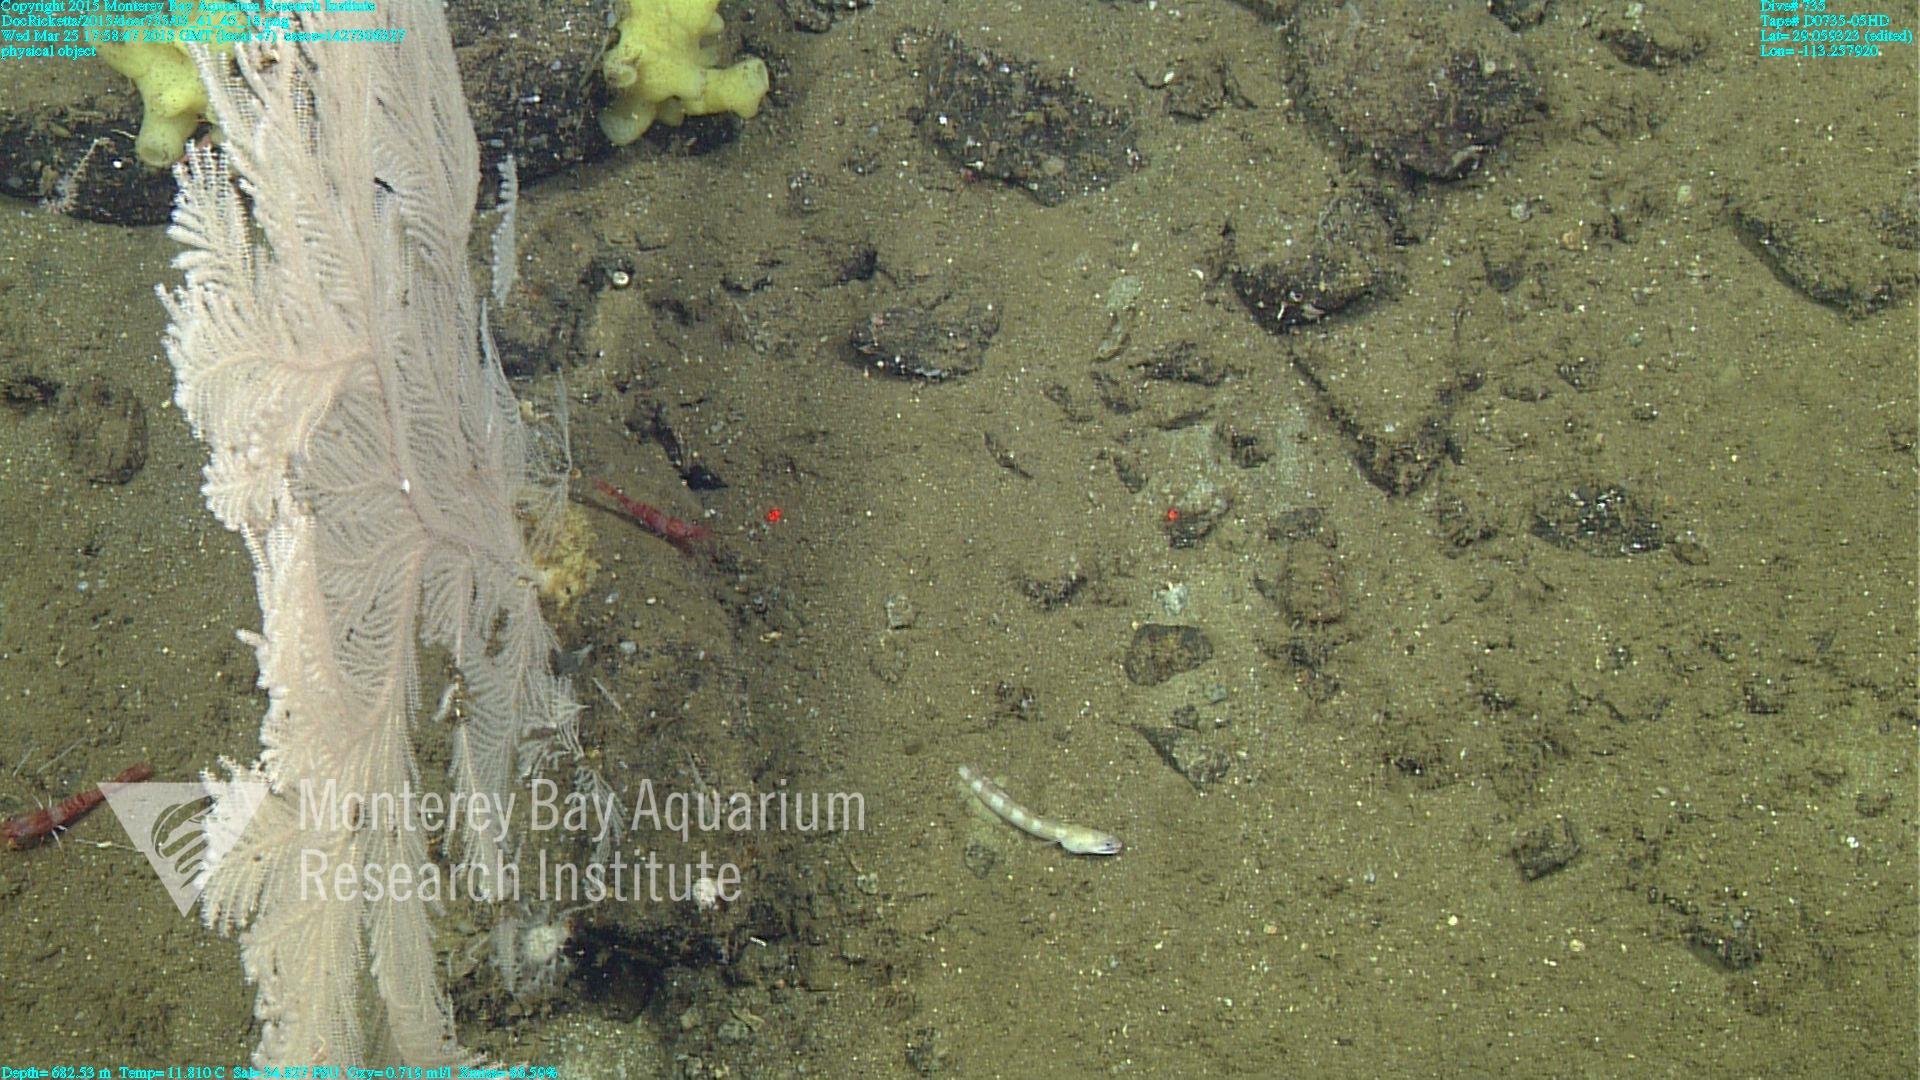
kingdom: Animalia
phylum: Cnidaria
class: Anthozoa
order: Scleralcyonacea
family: Primnoidae
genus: Calyptrophora
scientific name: Calyptrophora
